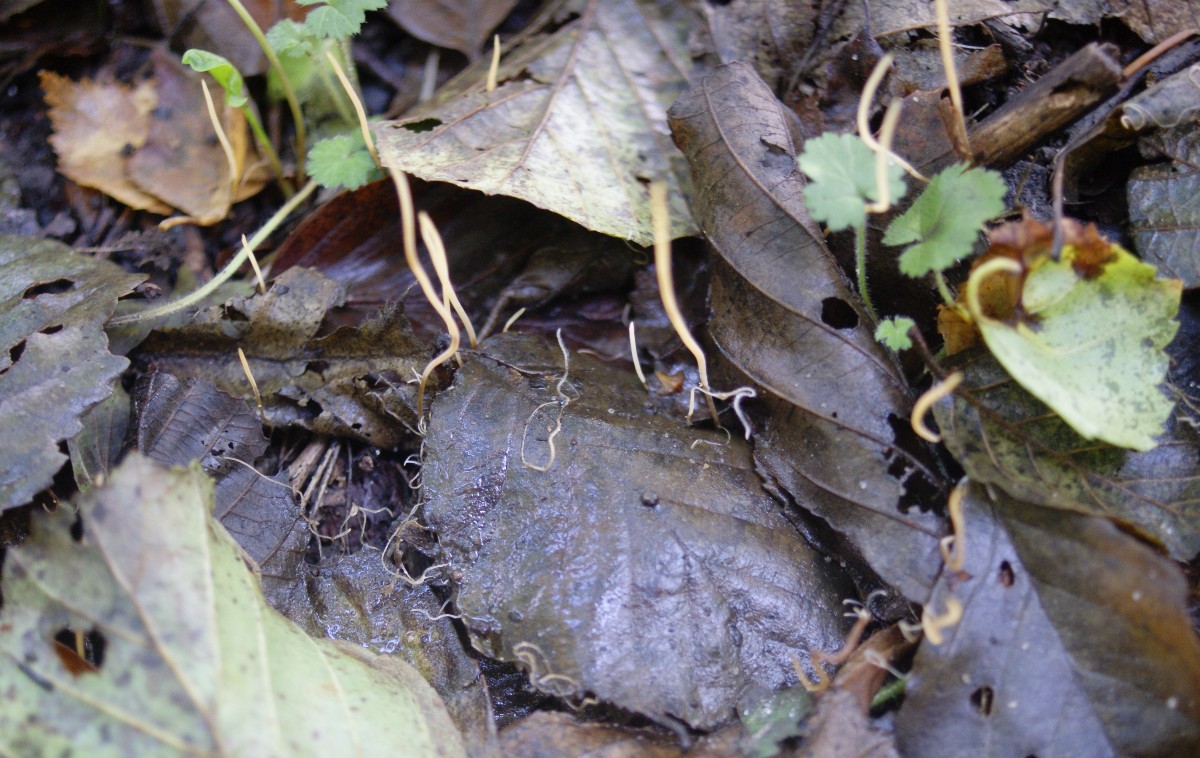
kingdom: Fungi
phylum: Basidiomycota
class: Agaricomycetes
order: Agaricales
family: Typhulaceae
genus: Typhula
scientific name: Typhula juncea
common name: trådagtig rørkølle
